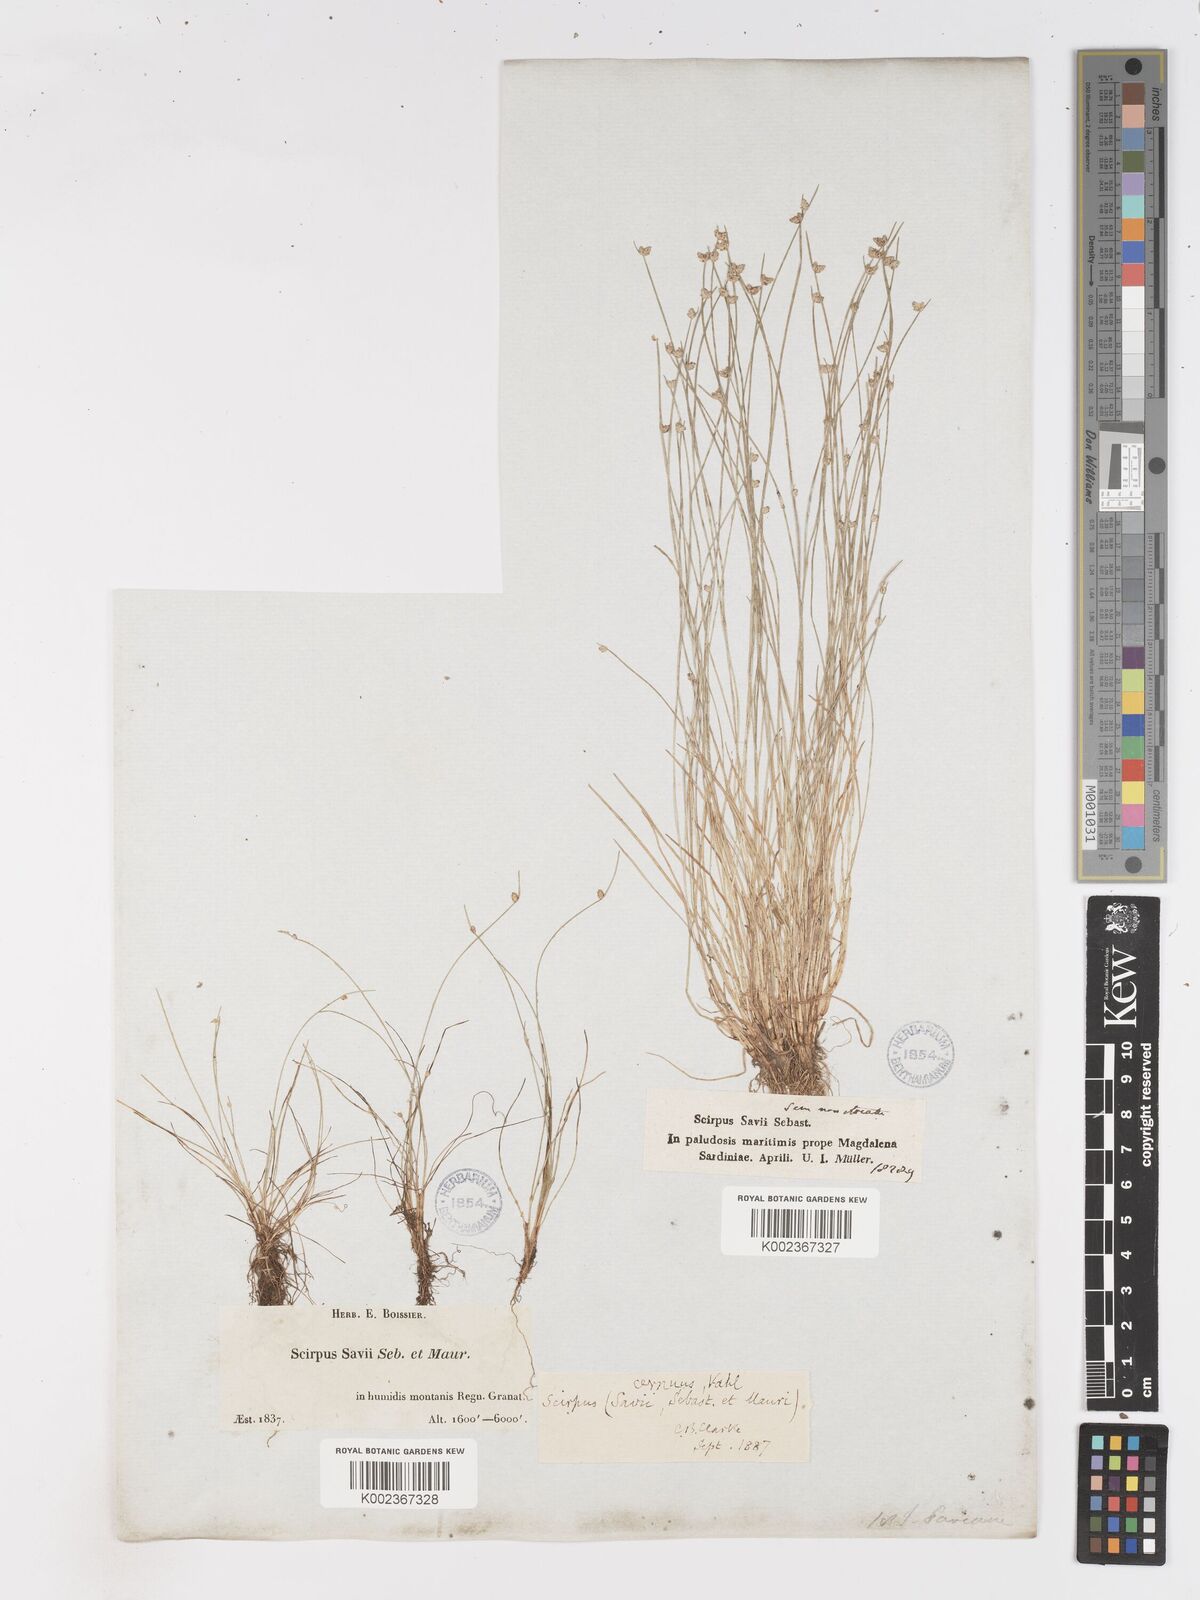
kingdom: Plantae
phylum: Tracheophyta
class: Liliopsida
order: Poales
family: Cyperaceae
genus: Isolepis
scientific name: Isolepis cernua
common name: Slender club-rush
